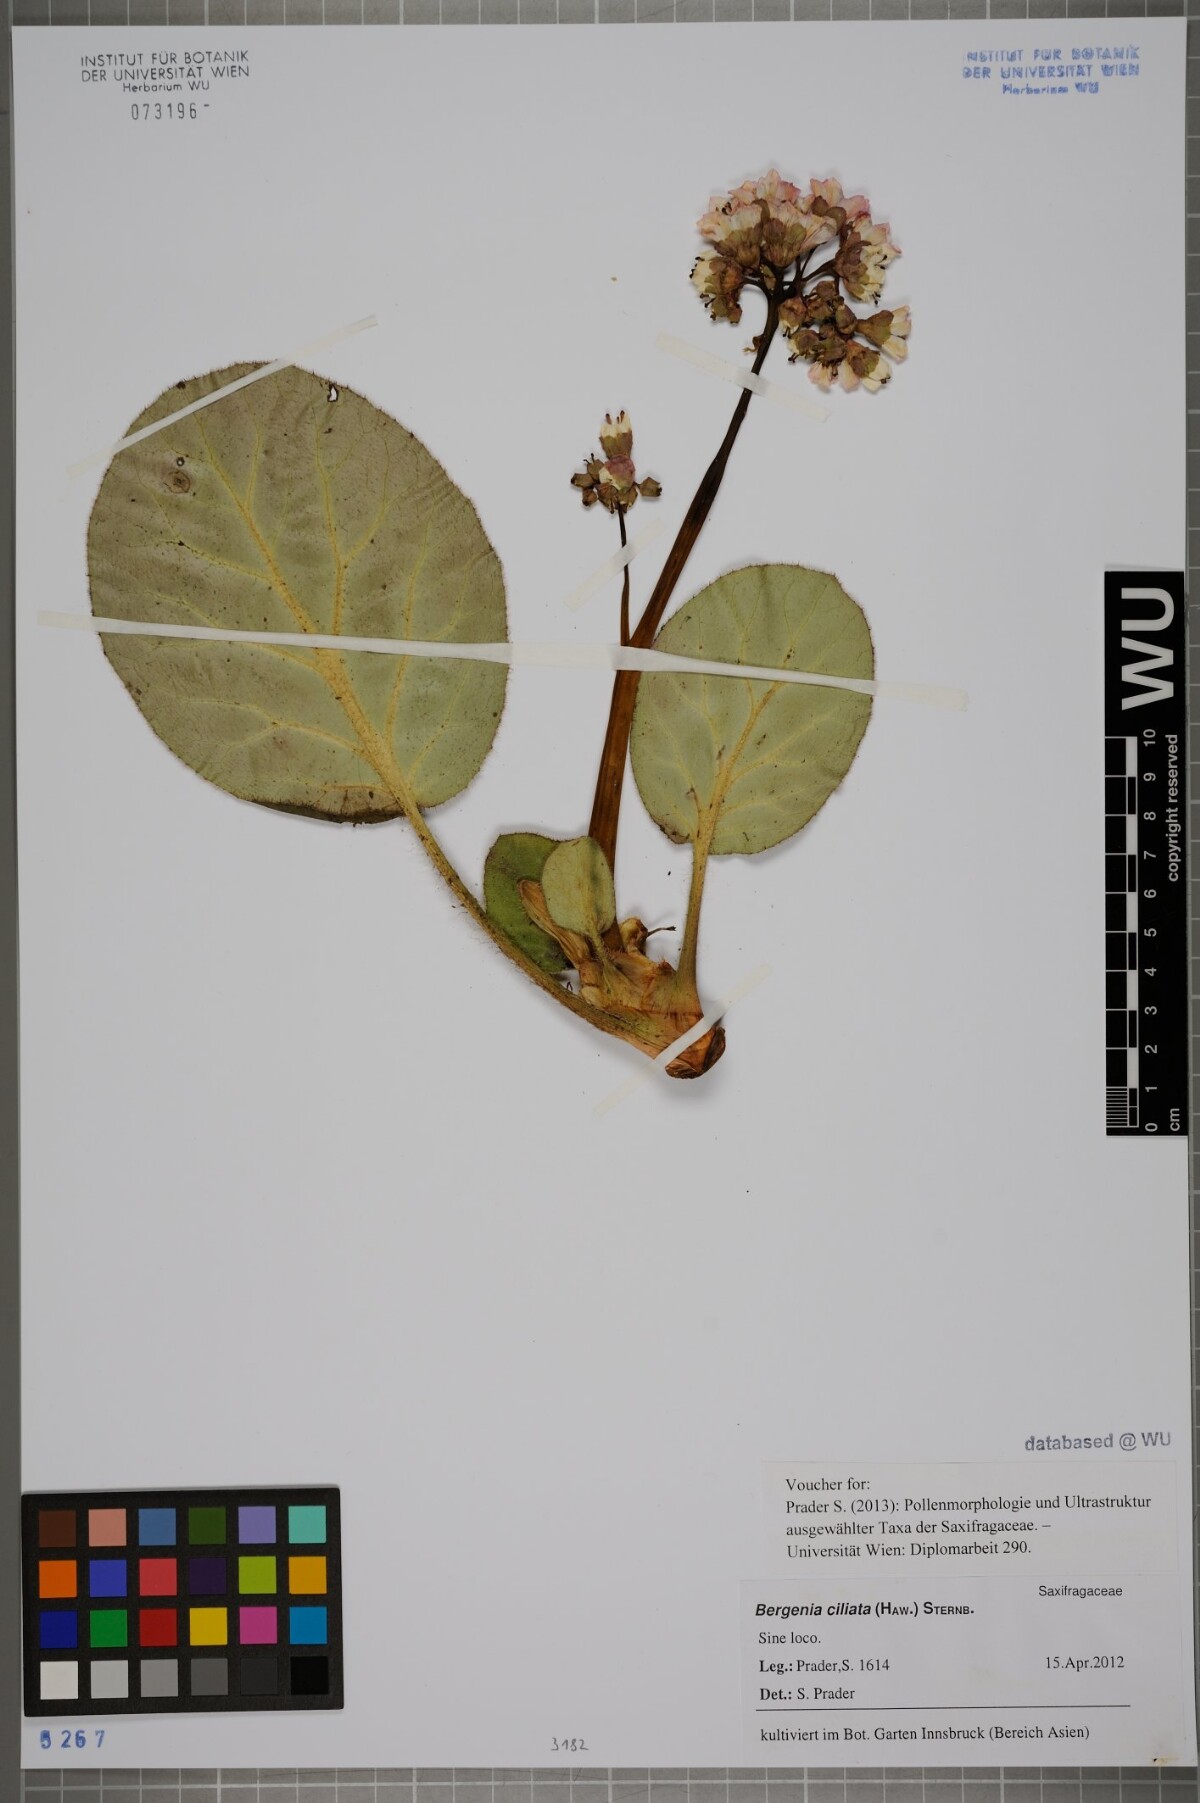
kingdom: Plantae
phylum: Tracheophyta
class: Magnoliopsida
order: Saxifragales
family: Saxifragaceae
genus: Bergenia
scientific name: Bergenia ciliata
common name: Hairy bergenia
